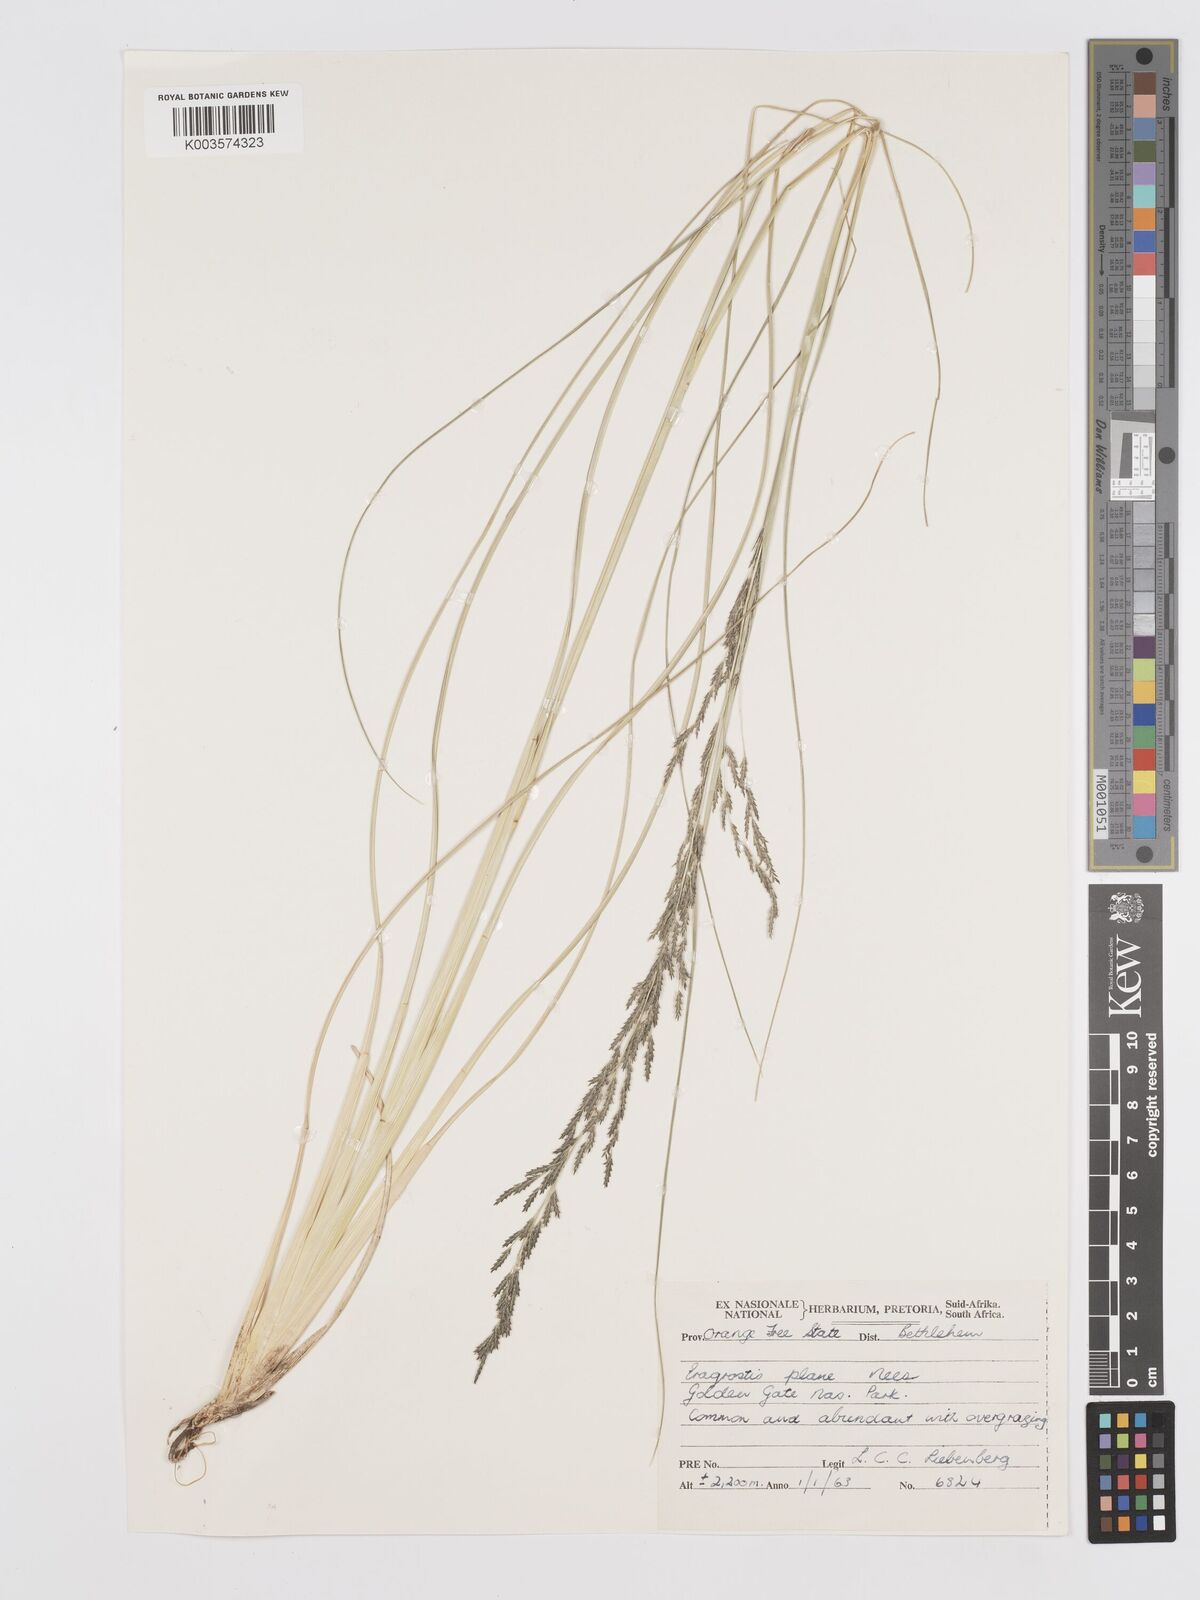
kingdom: Plantae
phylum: Tracheophyta
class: Liliopsida
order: Poales
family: Poaceae
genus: Eragrostis
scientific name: Eragrostis plana
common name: South african lovegrass
